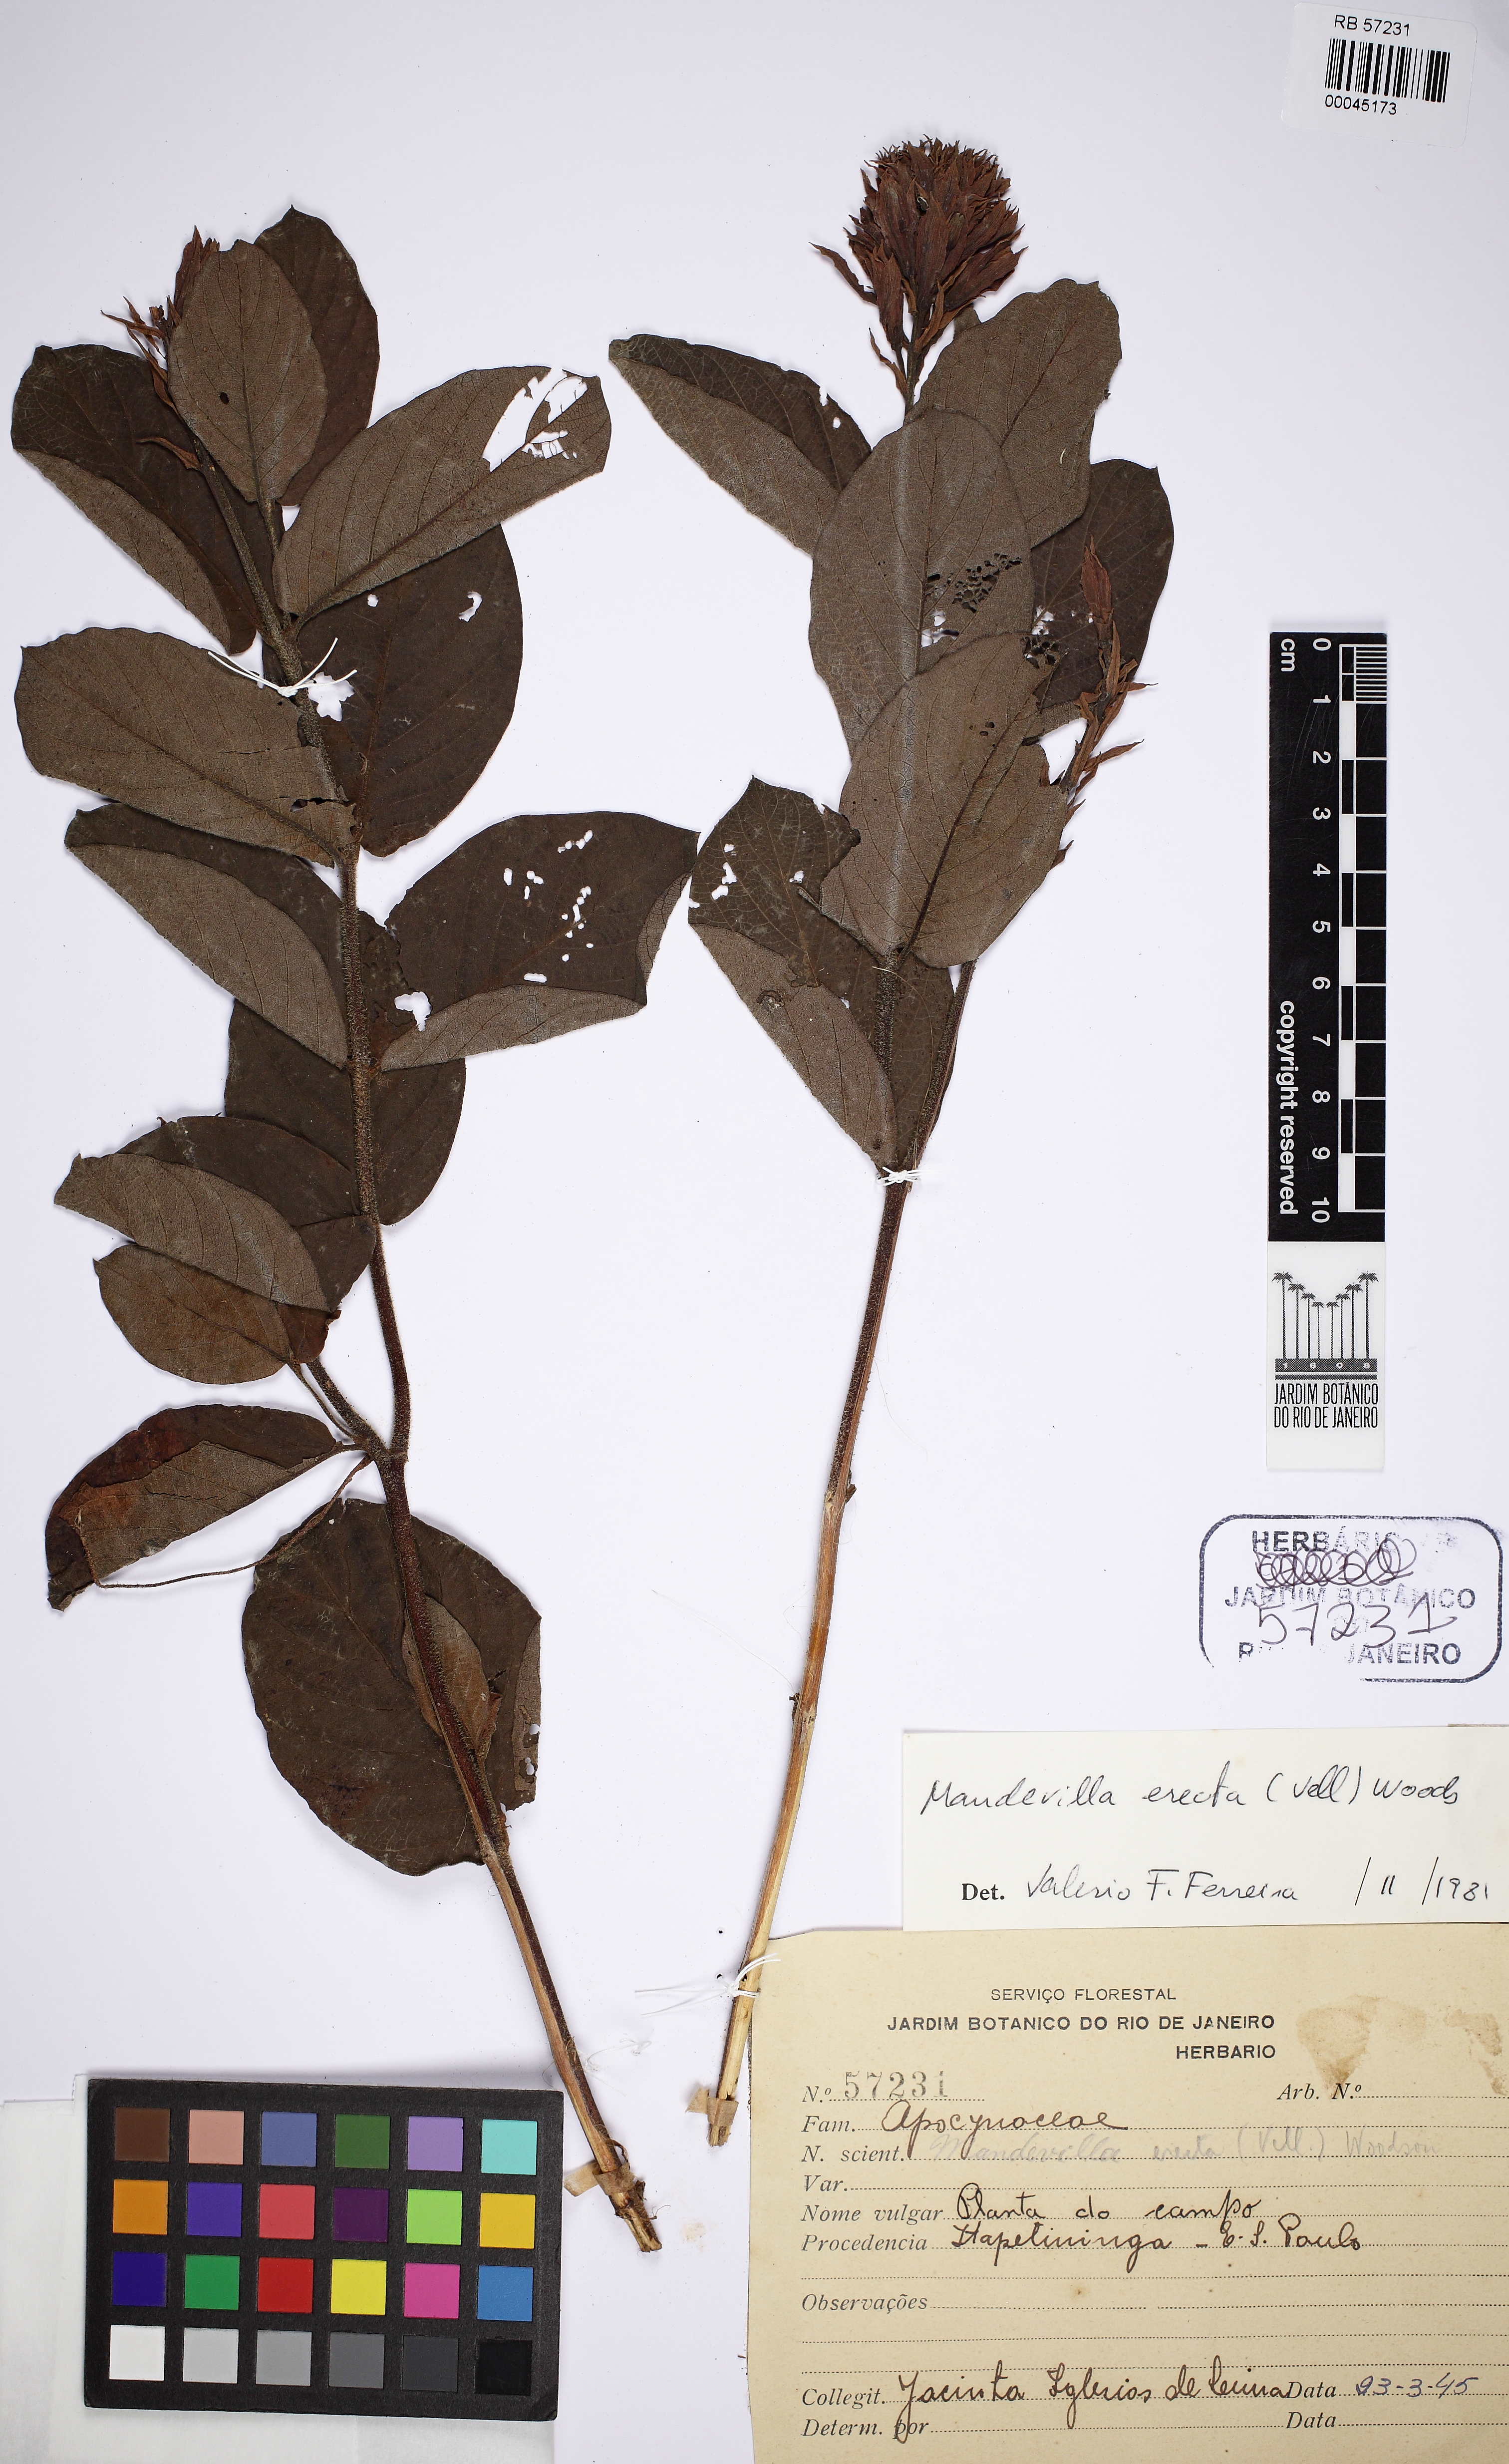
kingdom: Plantae
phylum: Tracheophyta
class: Magnoliopsida
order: Gentianales
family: Apocynaceae
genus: Mandevilla
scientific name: Mandevilla emarginata
